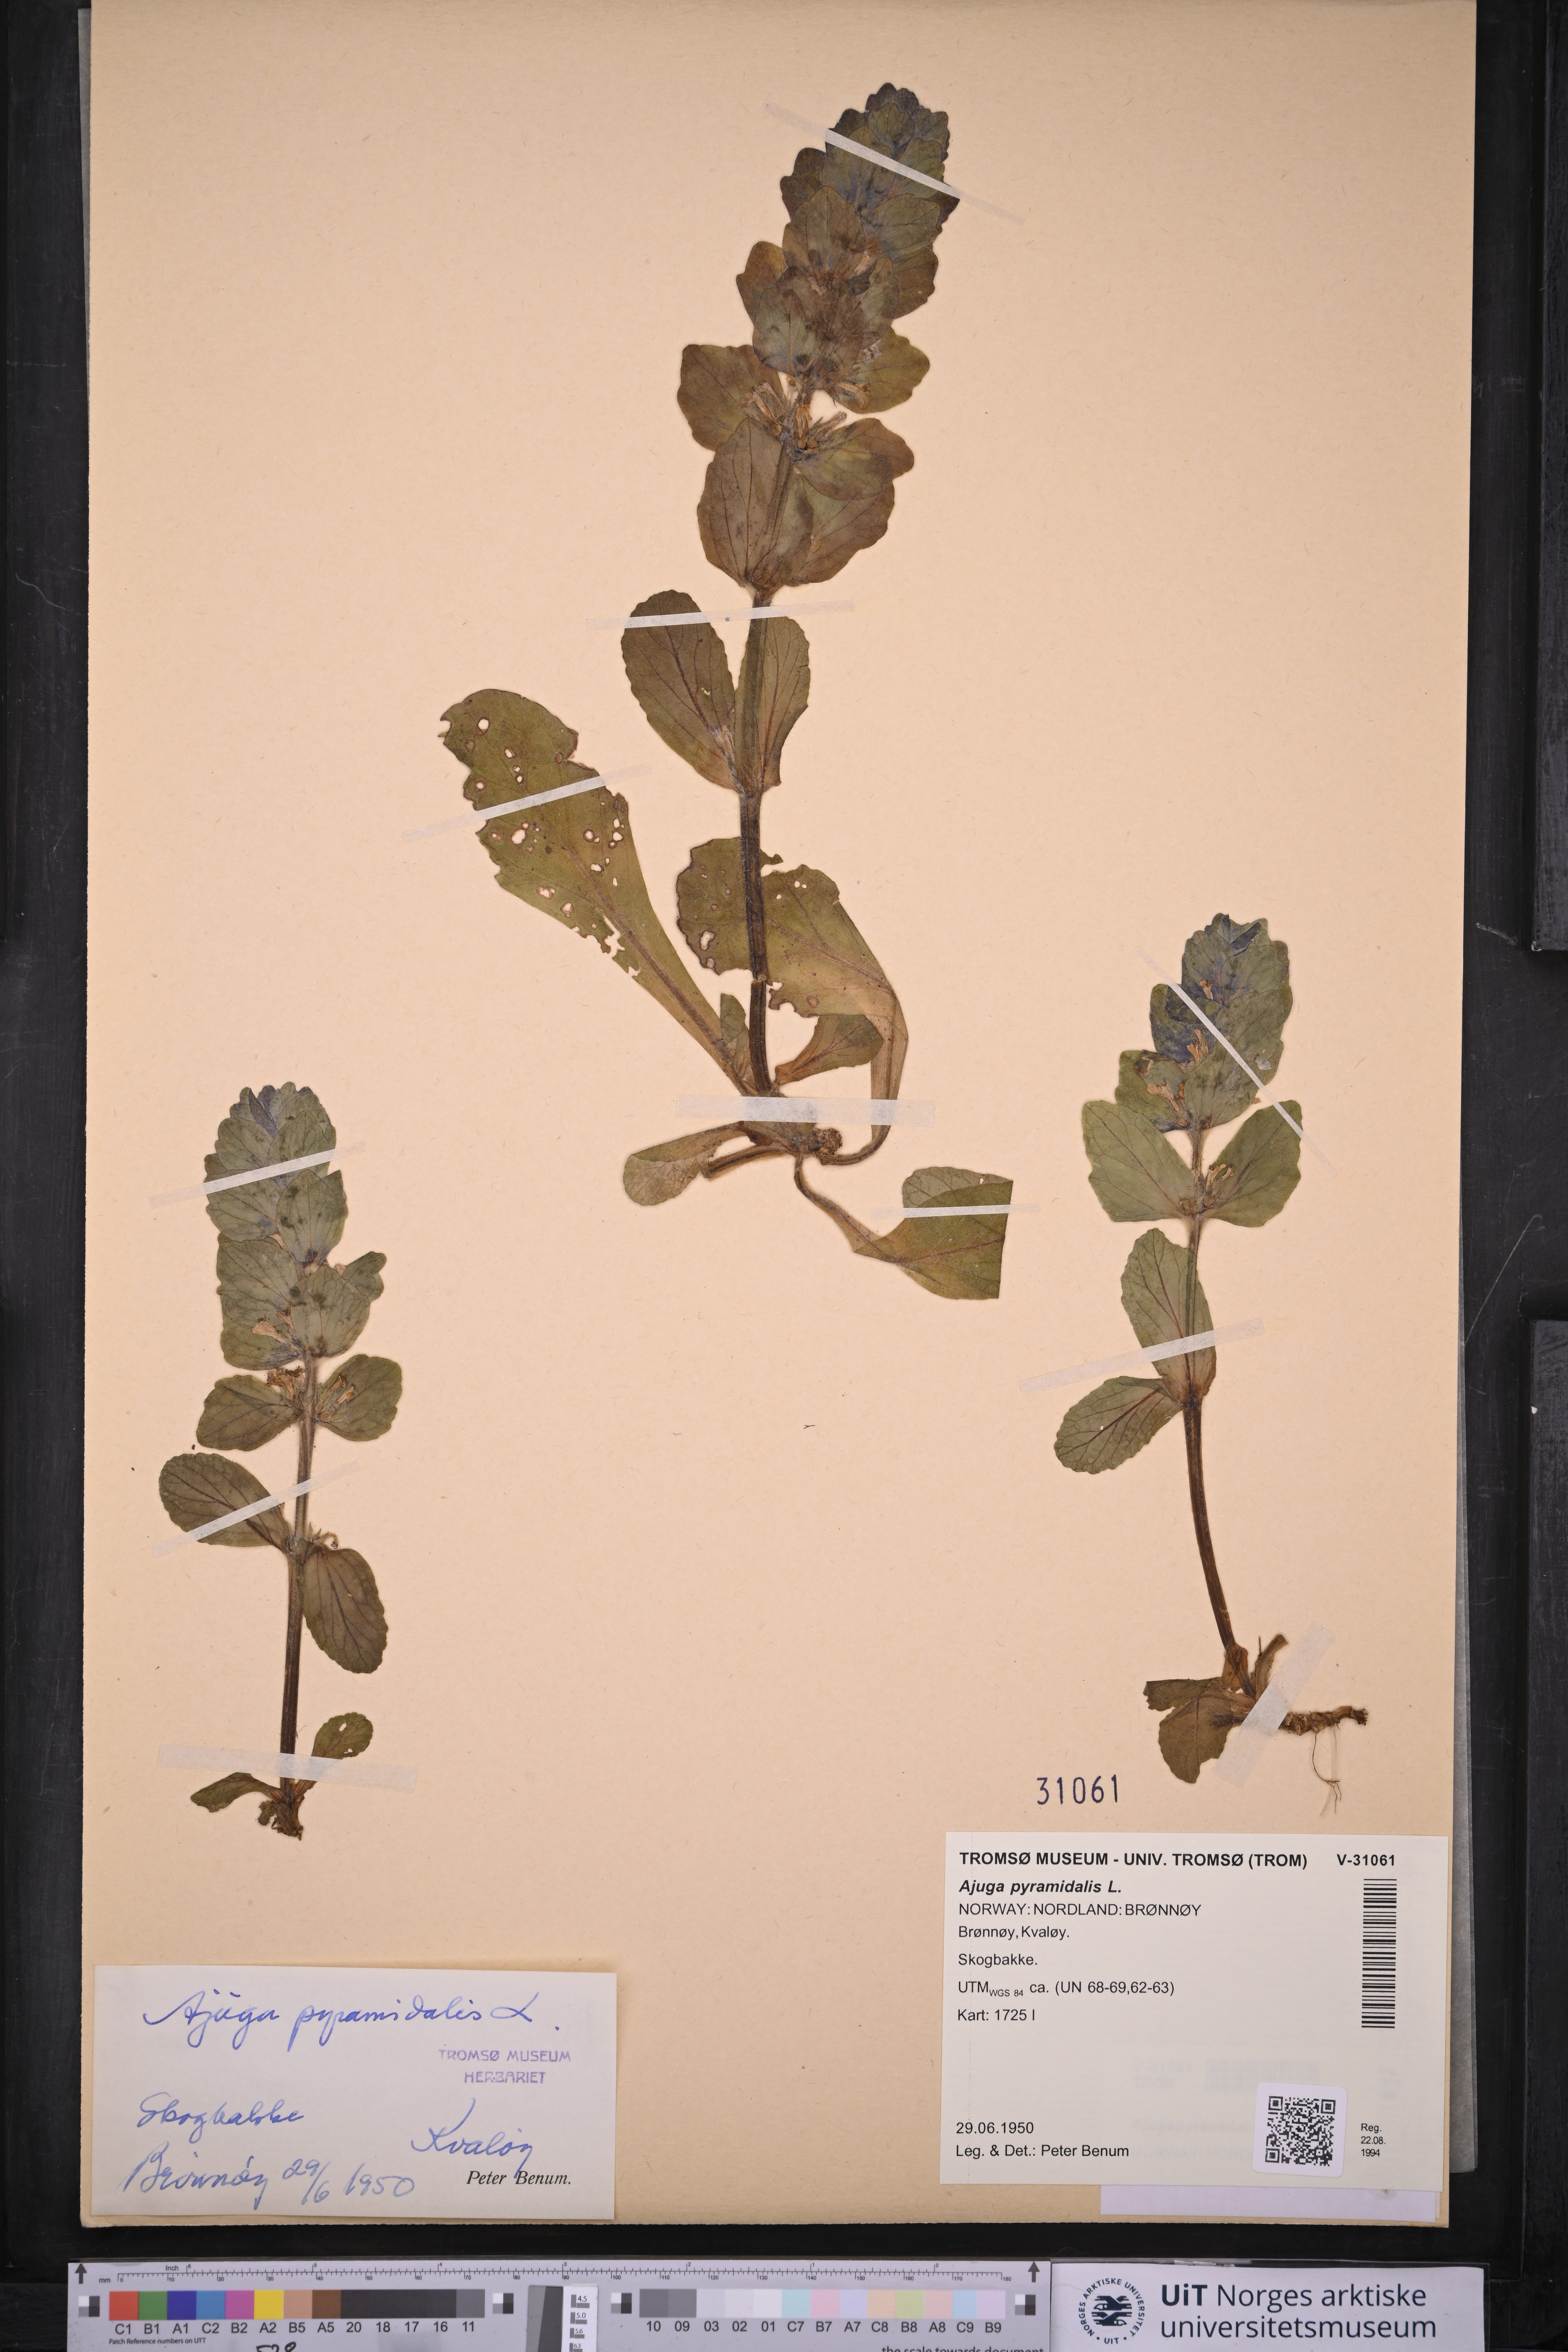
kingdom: Plantae
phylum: Tracheophyta
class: Magnoliopsida
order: Lamiales
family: Lamiaceae
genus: Ajuga
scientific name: Ajuga pyramidalis
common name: Pyramid bugle
